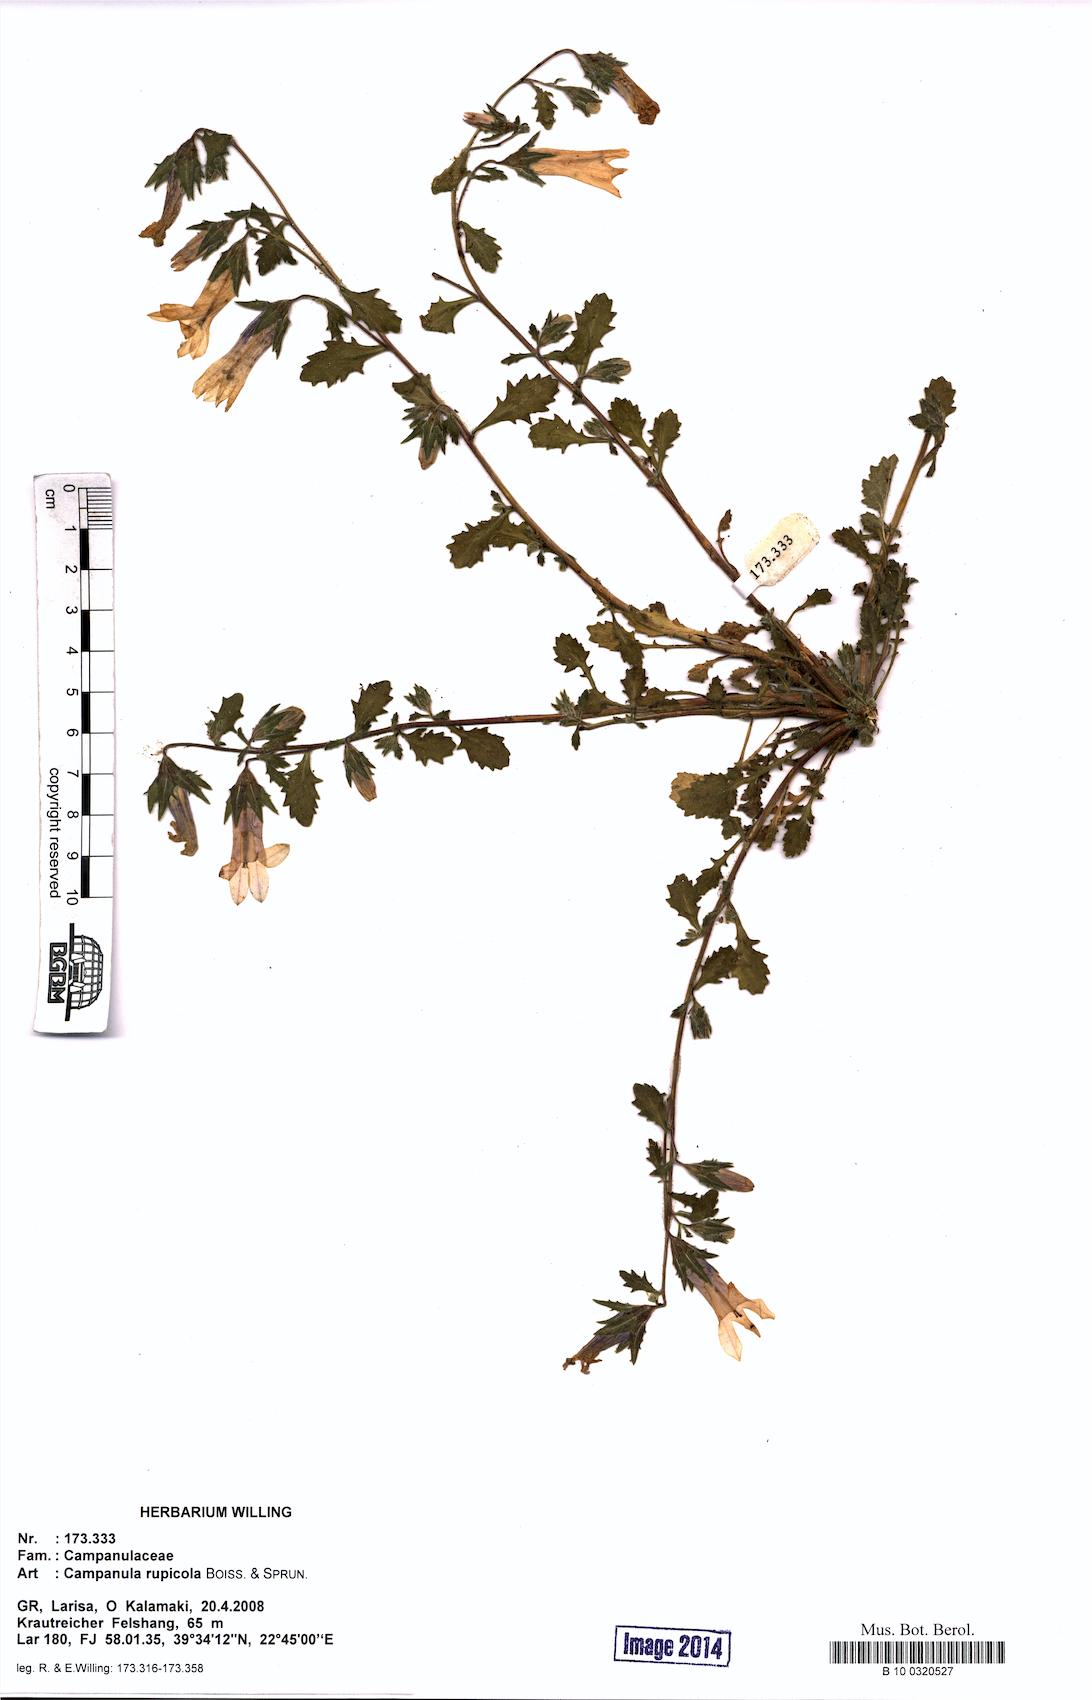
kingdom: Plantae
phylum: Tracheophyta
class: Magnoliopsida
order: Asterales
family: Campanulaceae
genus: Campanula
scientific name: Campanula rupicola
